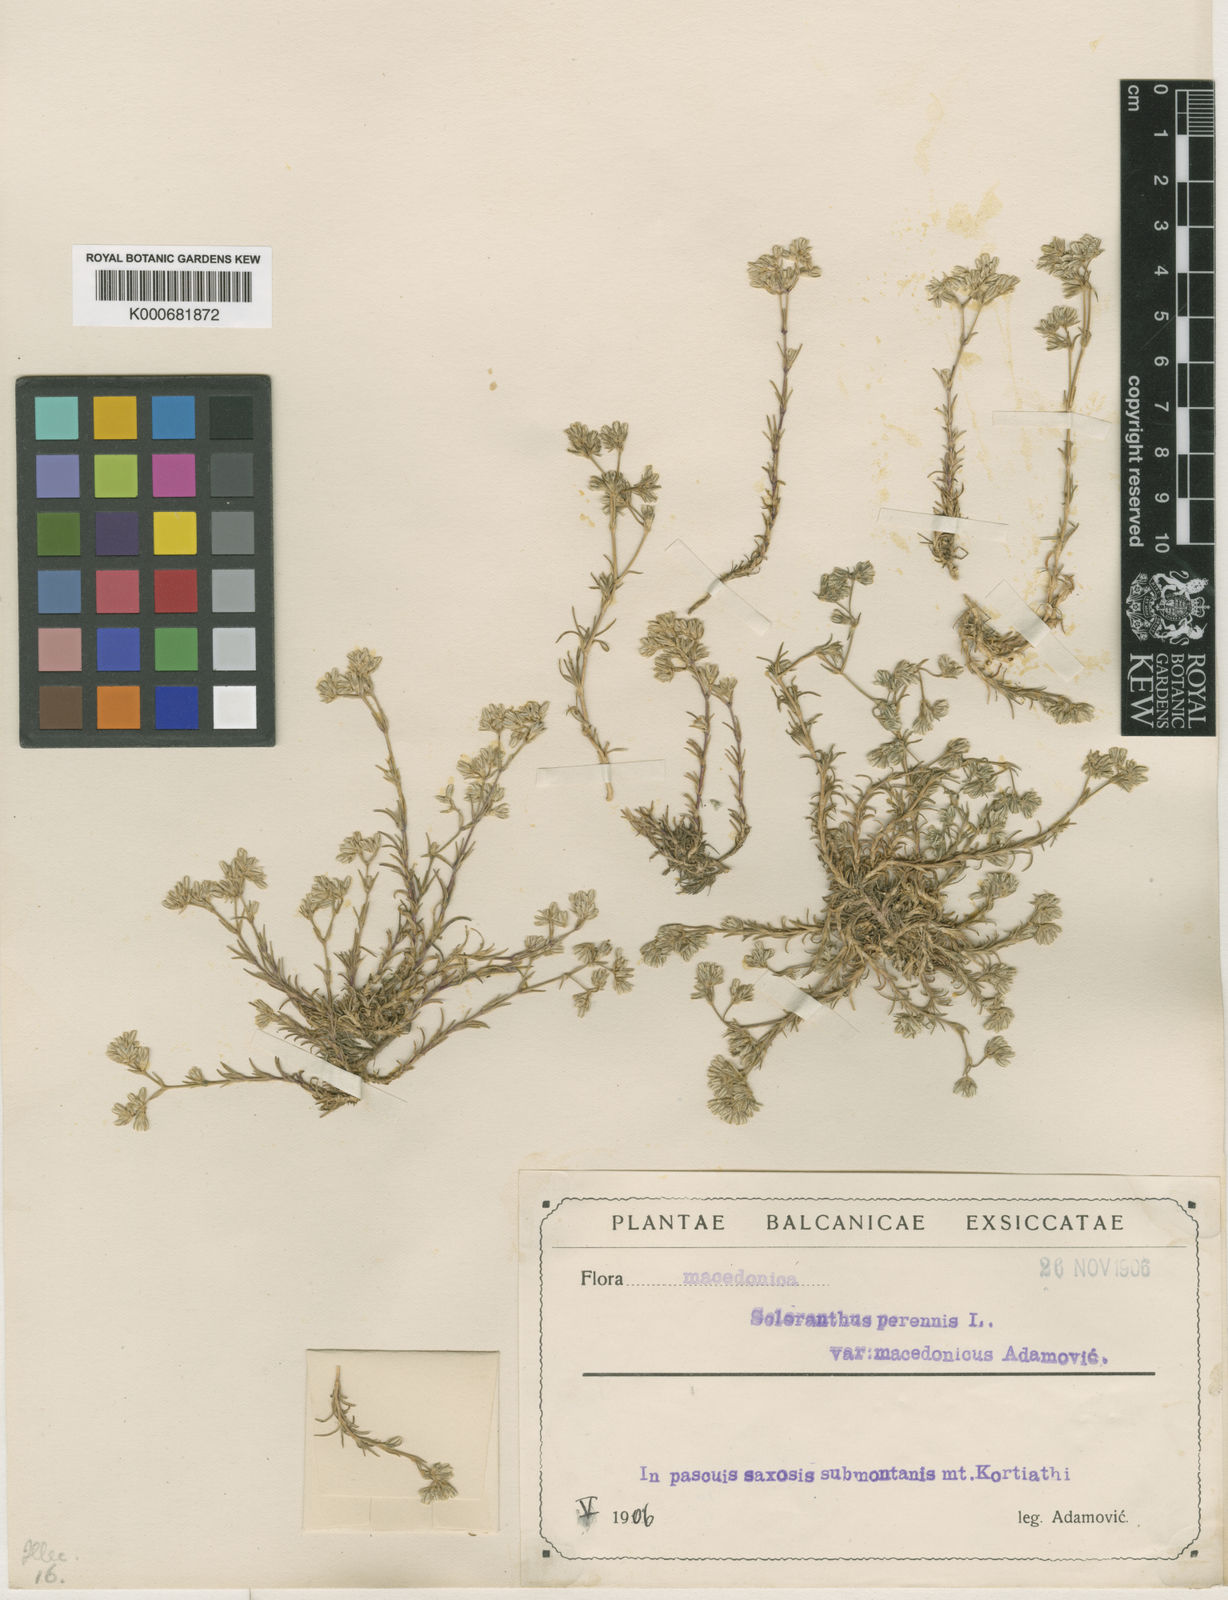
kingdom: Plantae
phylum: Tracheophyta
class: Magnoliopsida
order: Caryophyllales
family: Caryophyllaceae
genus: Scleranthus
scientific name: Scleranthus perennis
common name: Perennial knawel
